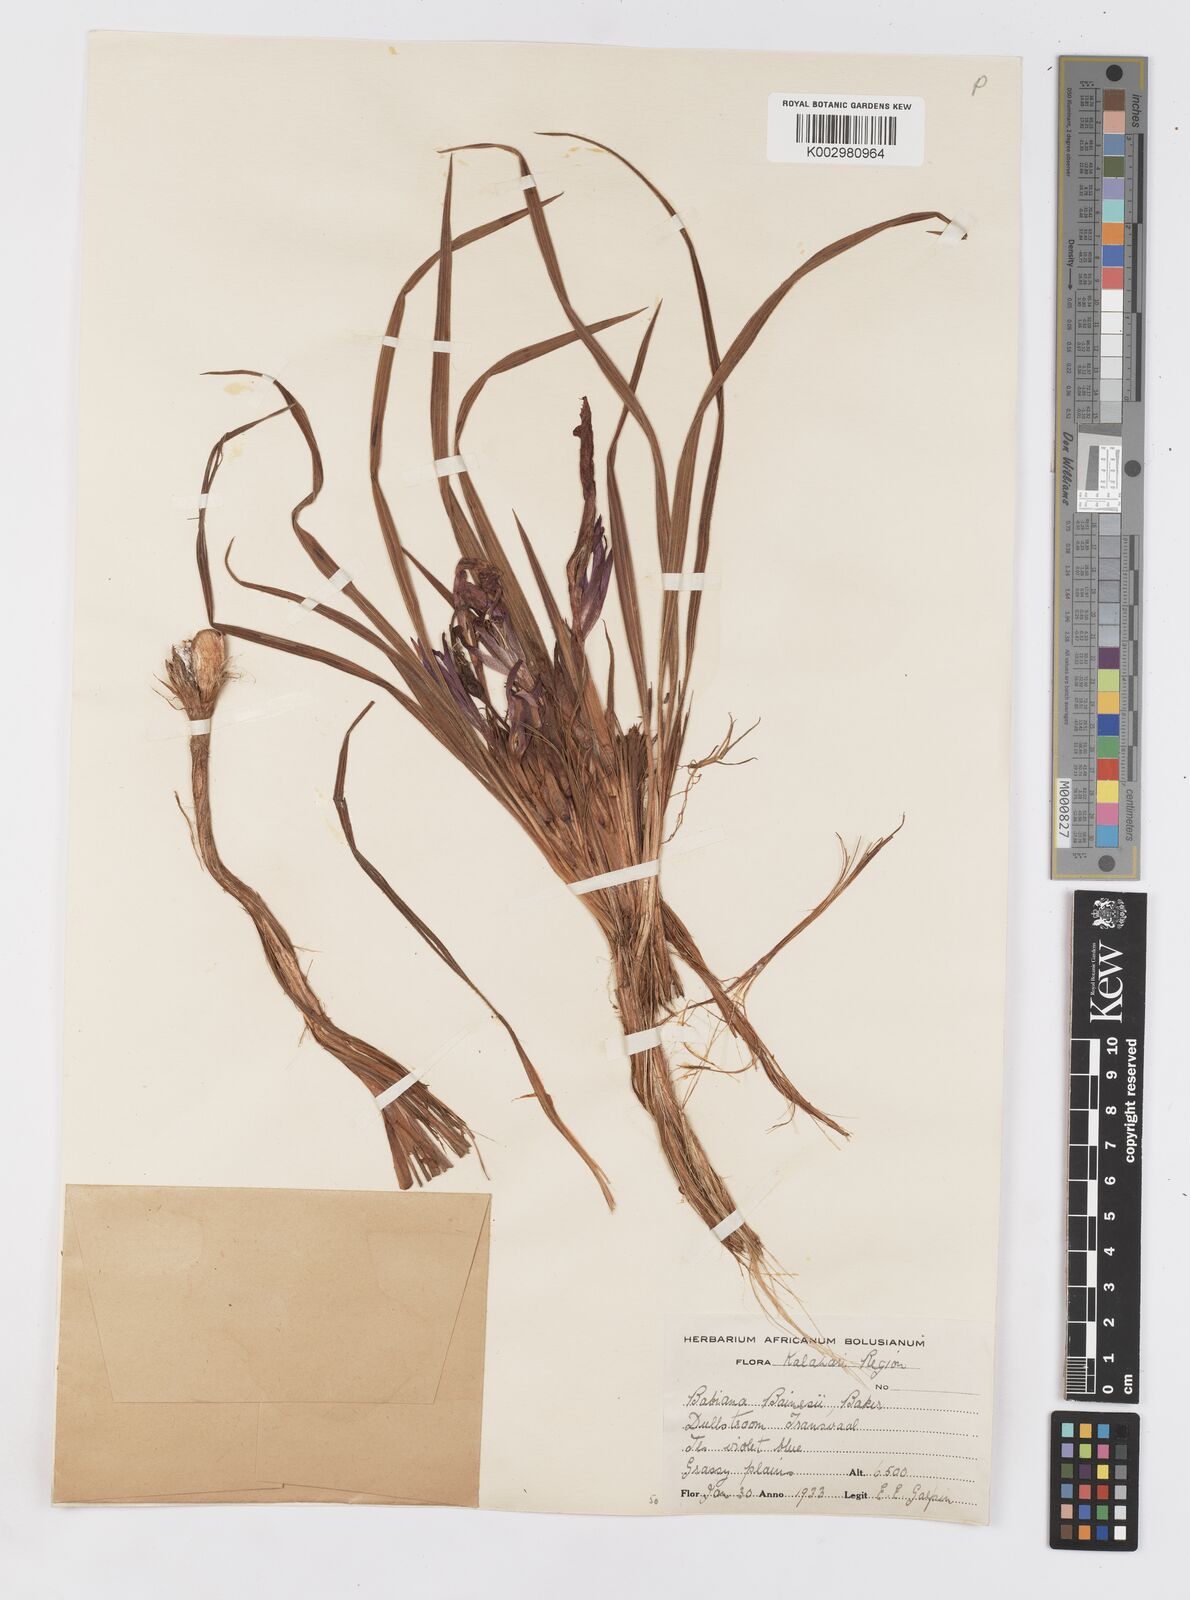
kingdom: Plantae
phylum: Tracheophyta
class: Liliopsida
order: Asparagales
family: Iridaceae
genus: Babiana
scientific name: Babiana
